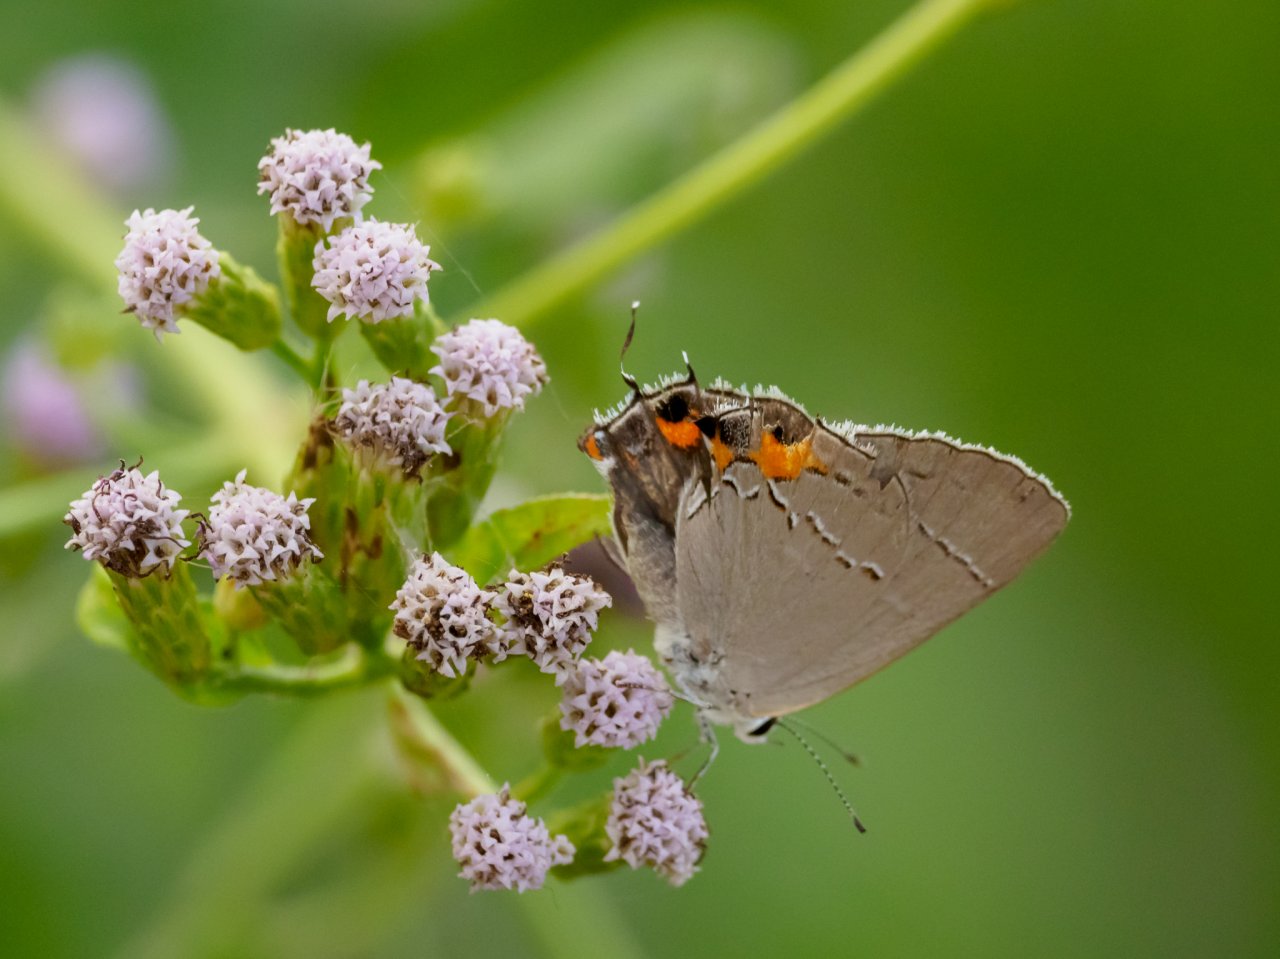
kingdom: Animalia
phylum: Arthropoda
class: Insecta
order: Lepidoptera
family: Lycaenidae
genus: Strymon
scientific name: Strymon melinus
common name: Gray Hairstreak
